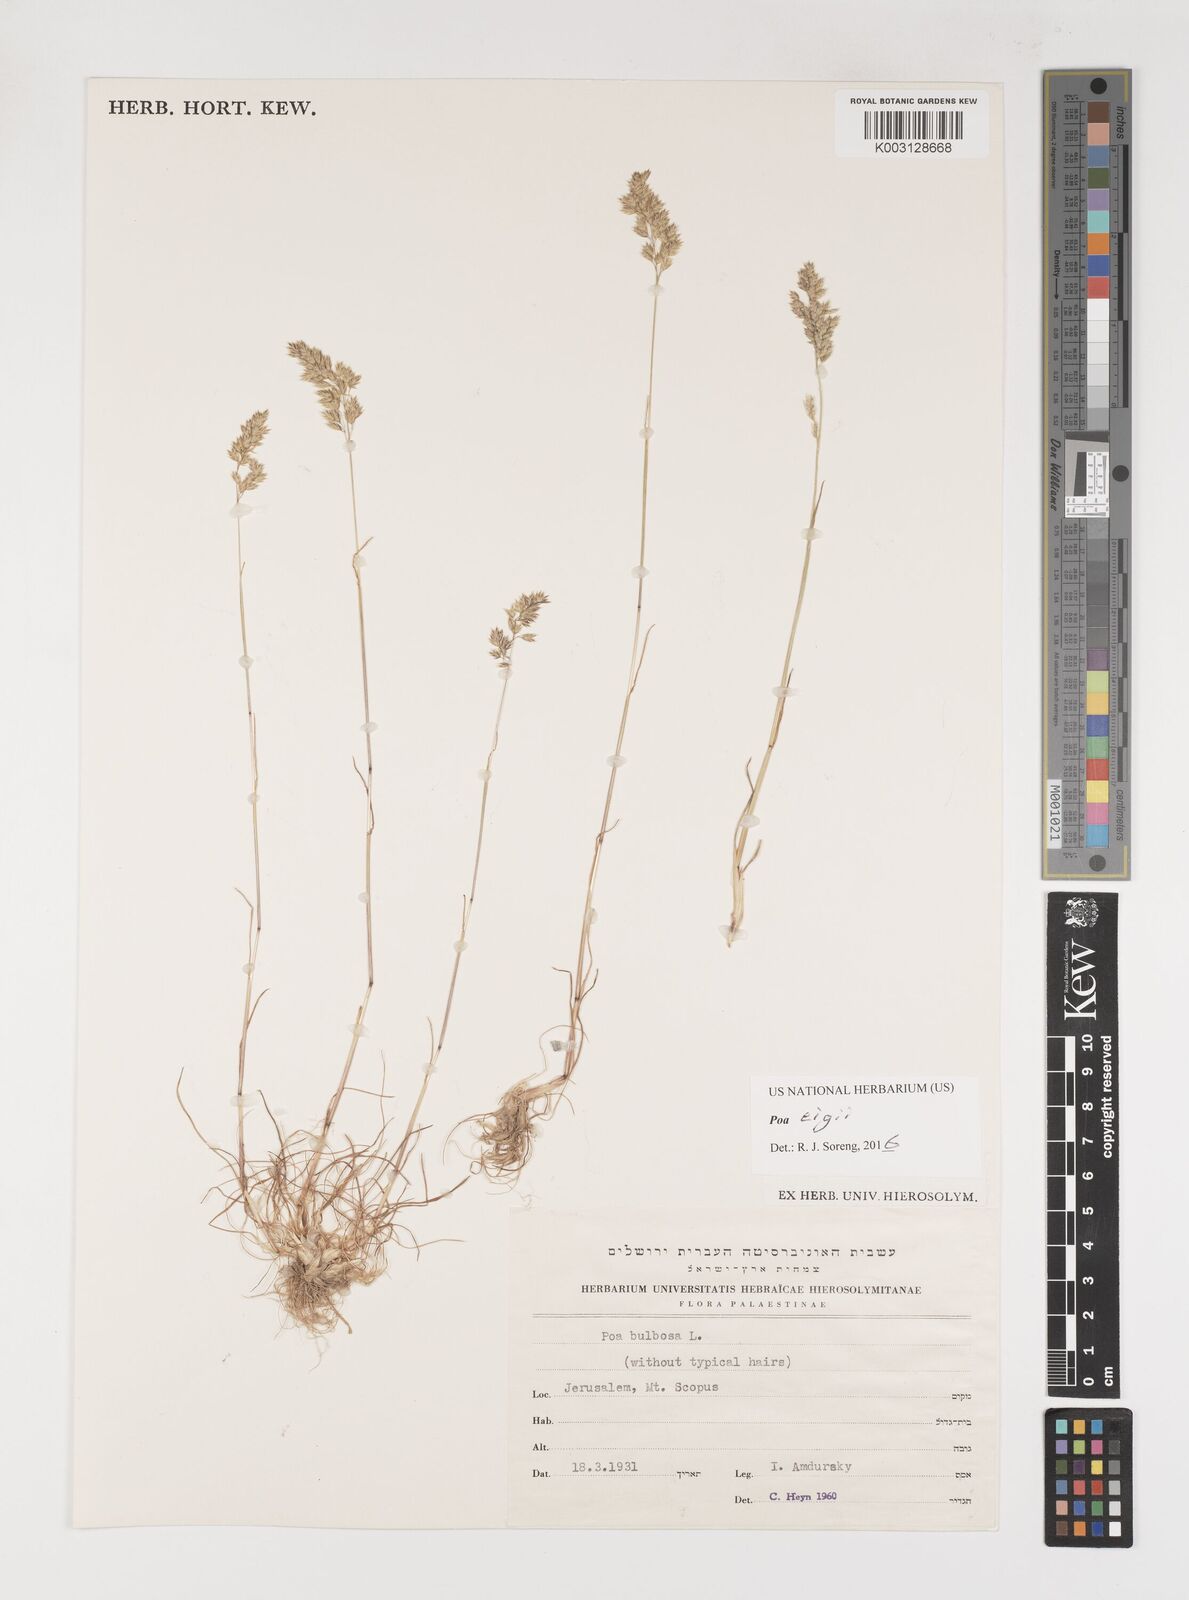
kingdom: Plantae
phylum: Tracheophyta
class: Liliopsida
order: Poales
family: Poaceae
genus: Poa
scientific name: Poa bulbosa
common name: Bulbous bluegrass
